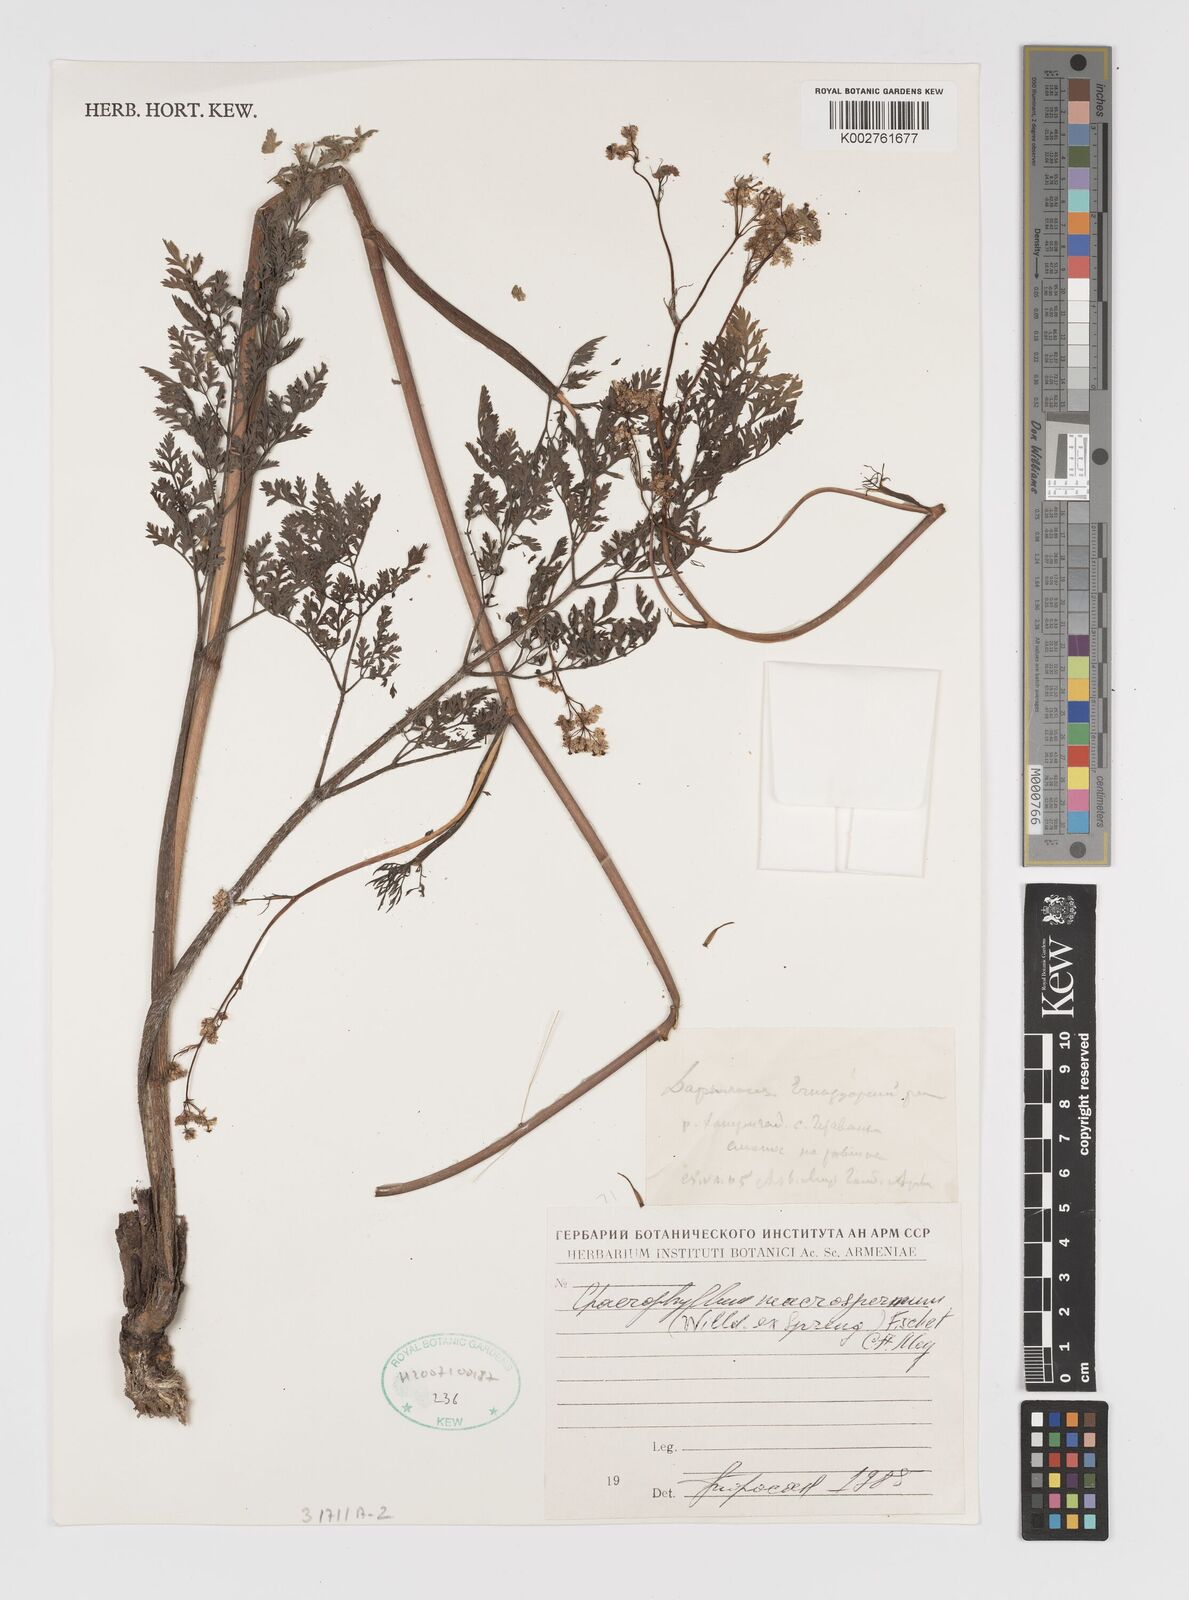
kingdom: Plantae
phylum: Tracheophyta
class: Magnoliopsida
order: Apiales
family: Apiaceae
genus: Chaerophyllum
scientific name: Chaerophyllum macrospermum
